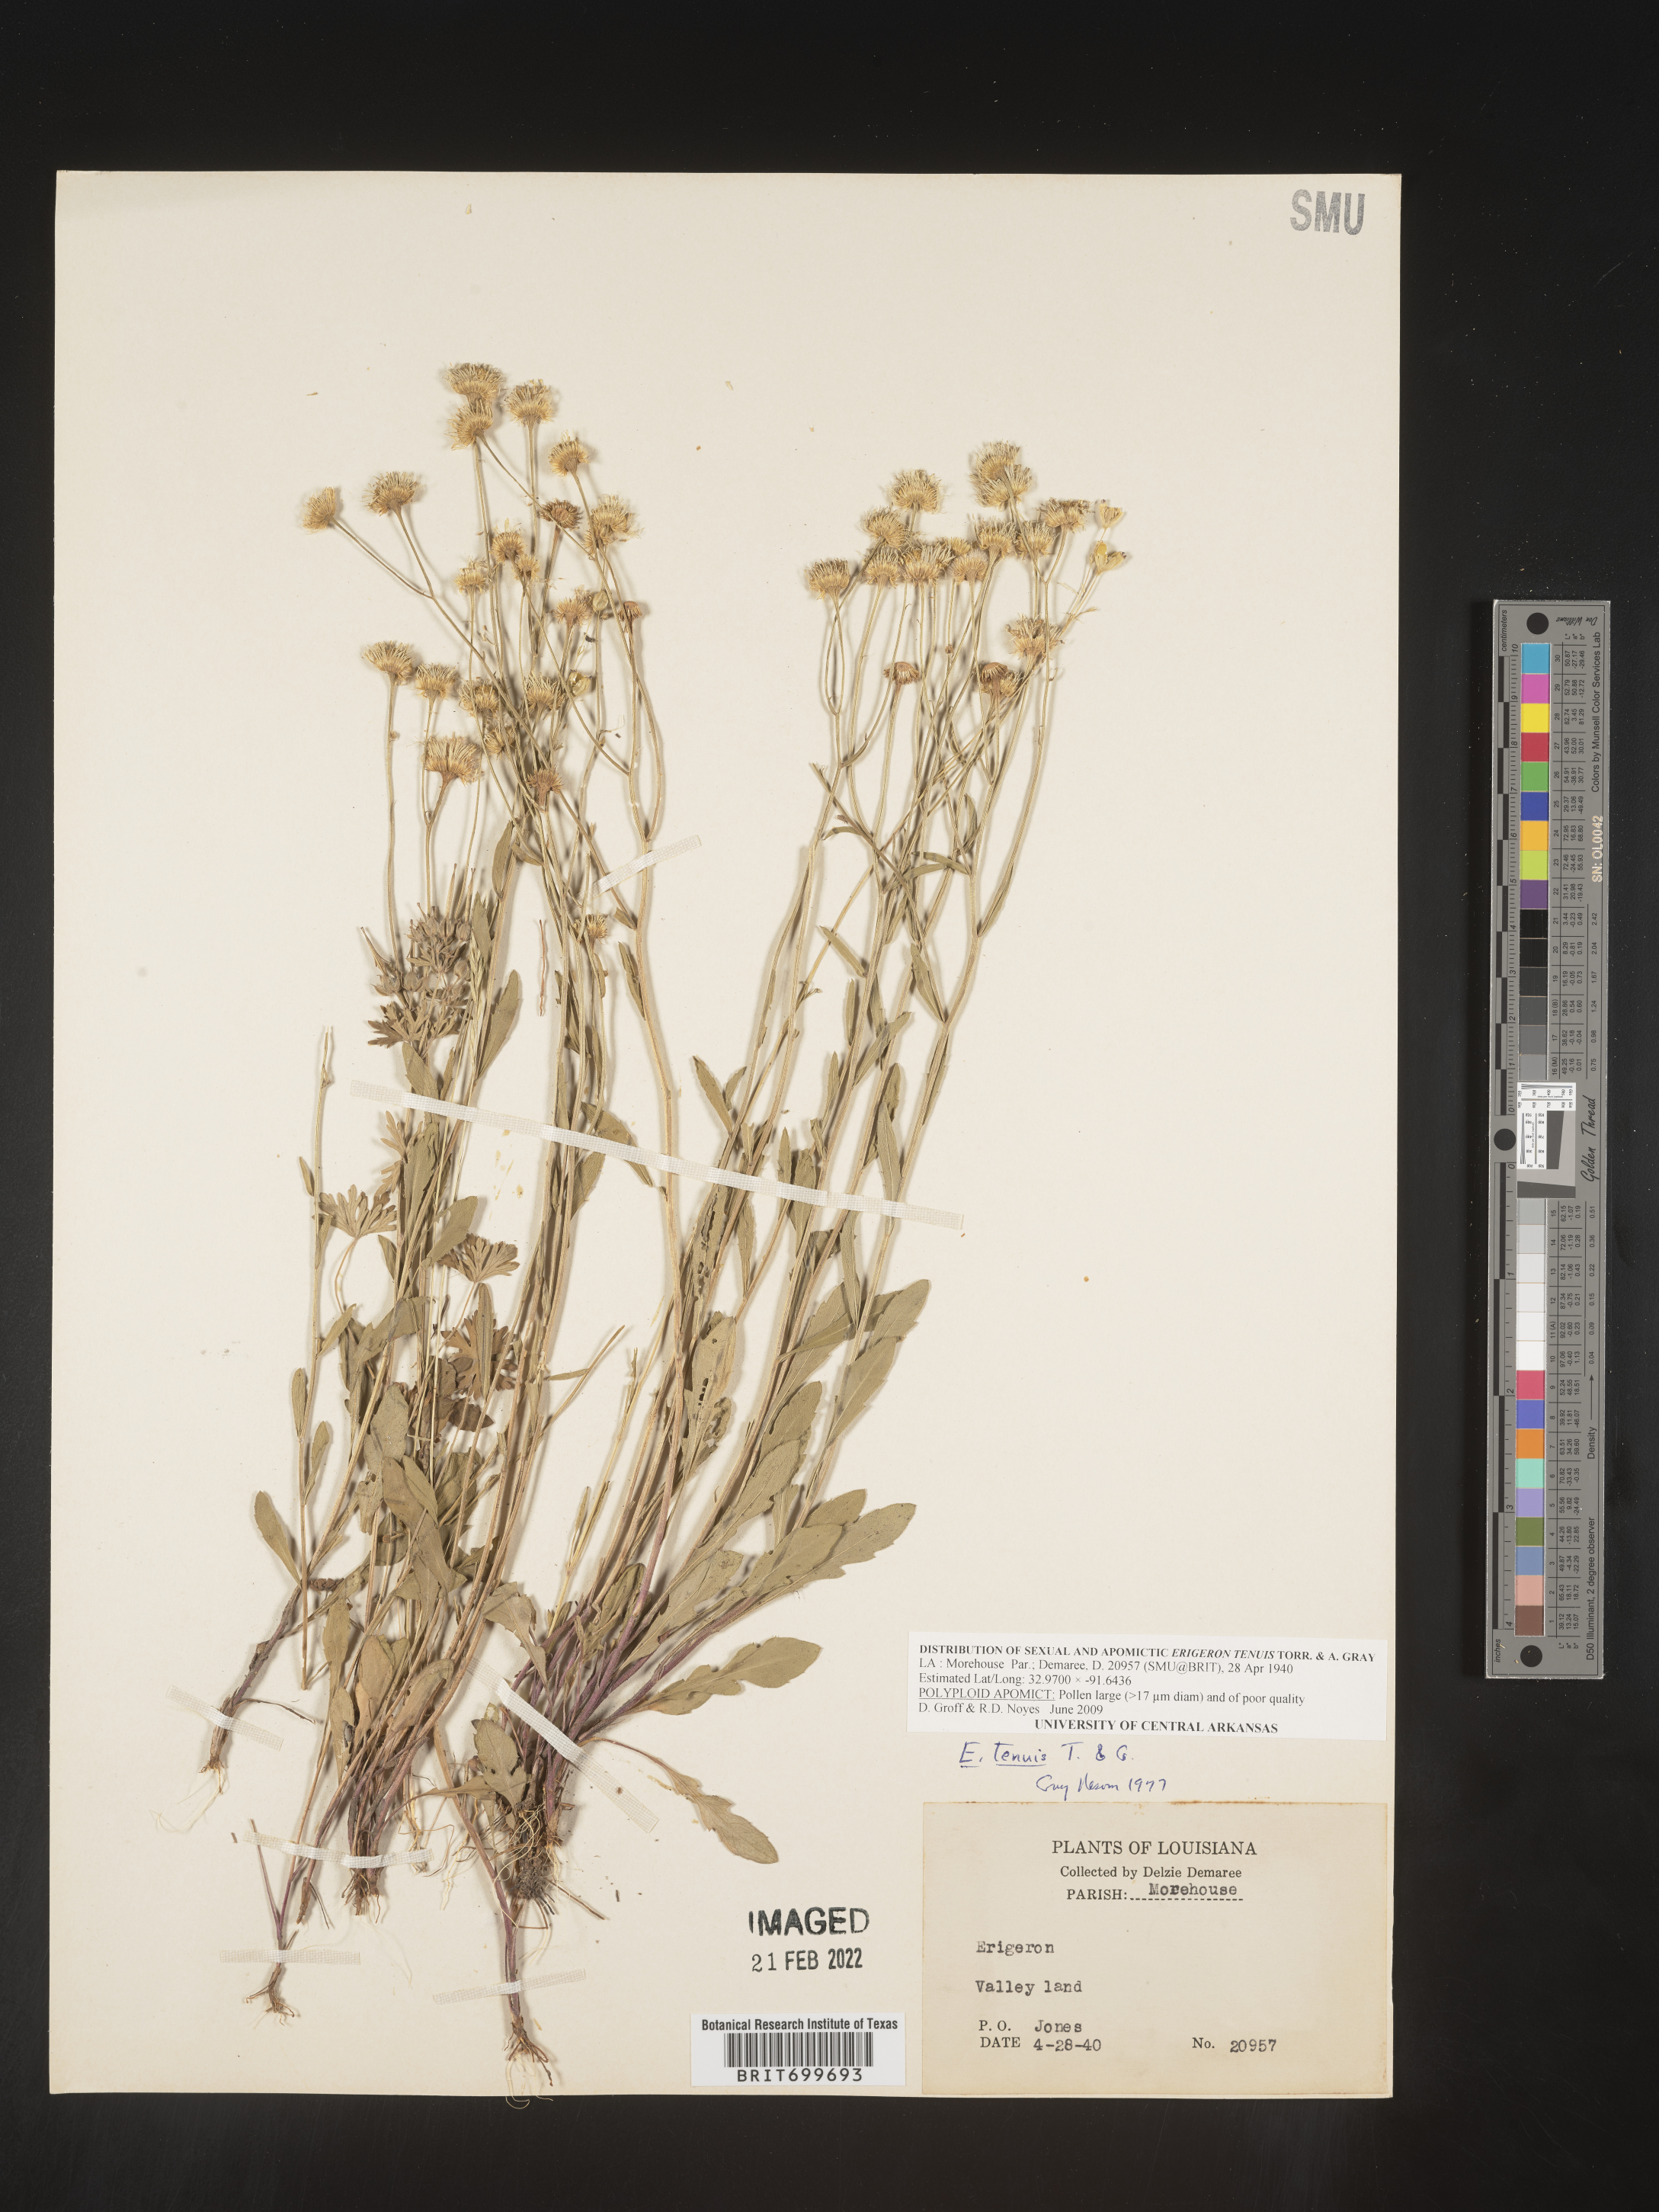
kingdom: Plantae
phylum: Tracheophyta
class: Magnoliopsida
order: Asterales
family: Asteraceae
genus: Erigeron
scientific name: Erigeron tenuis
